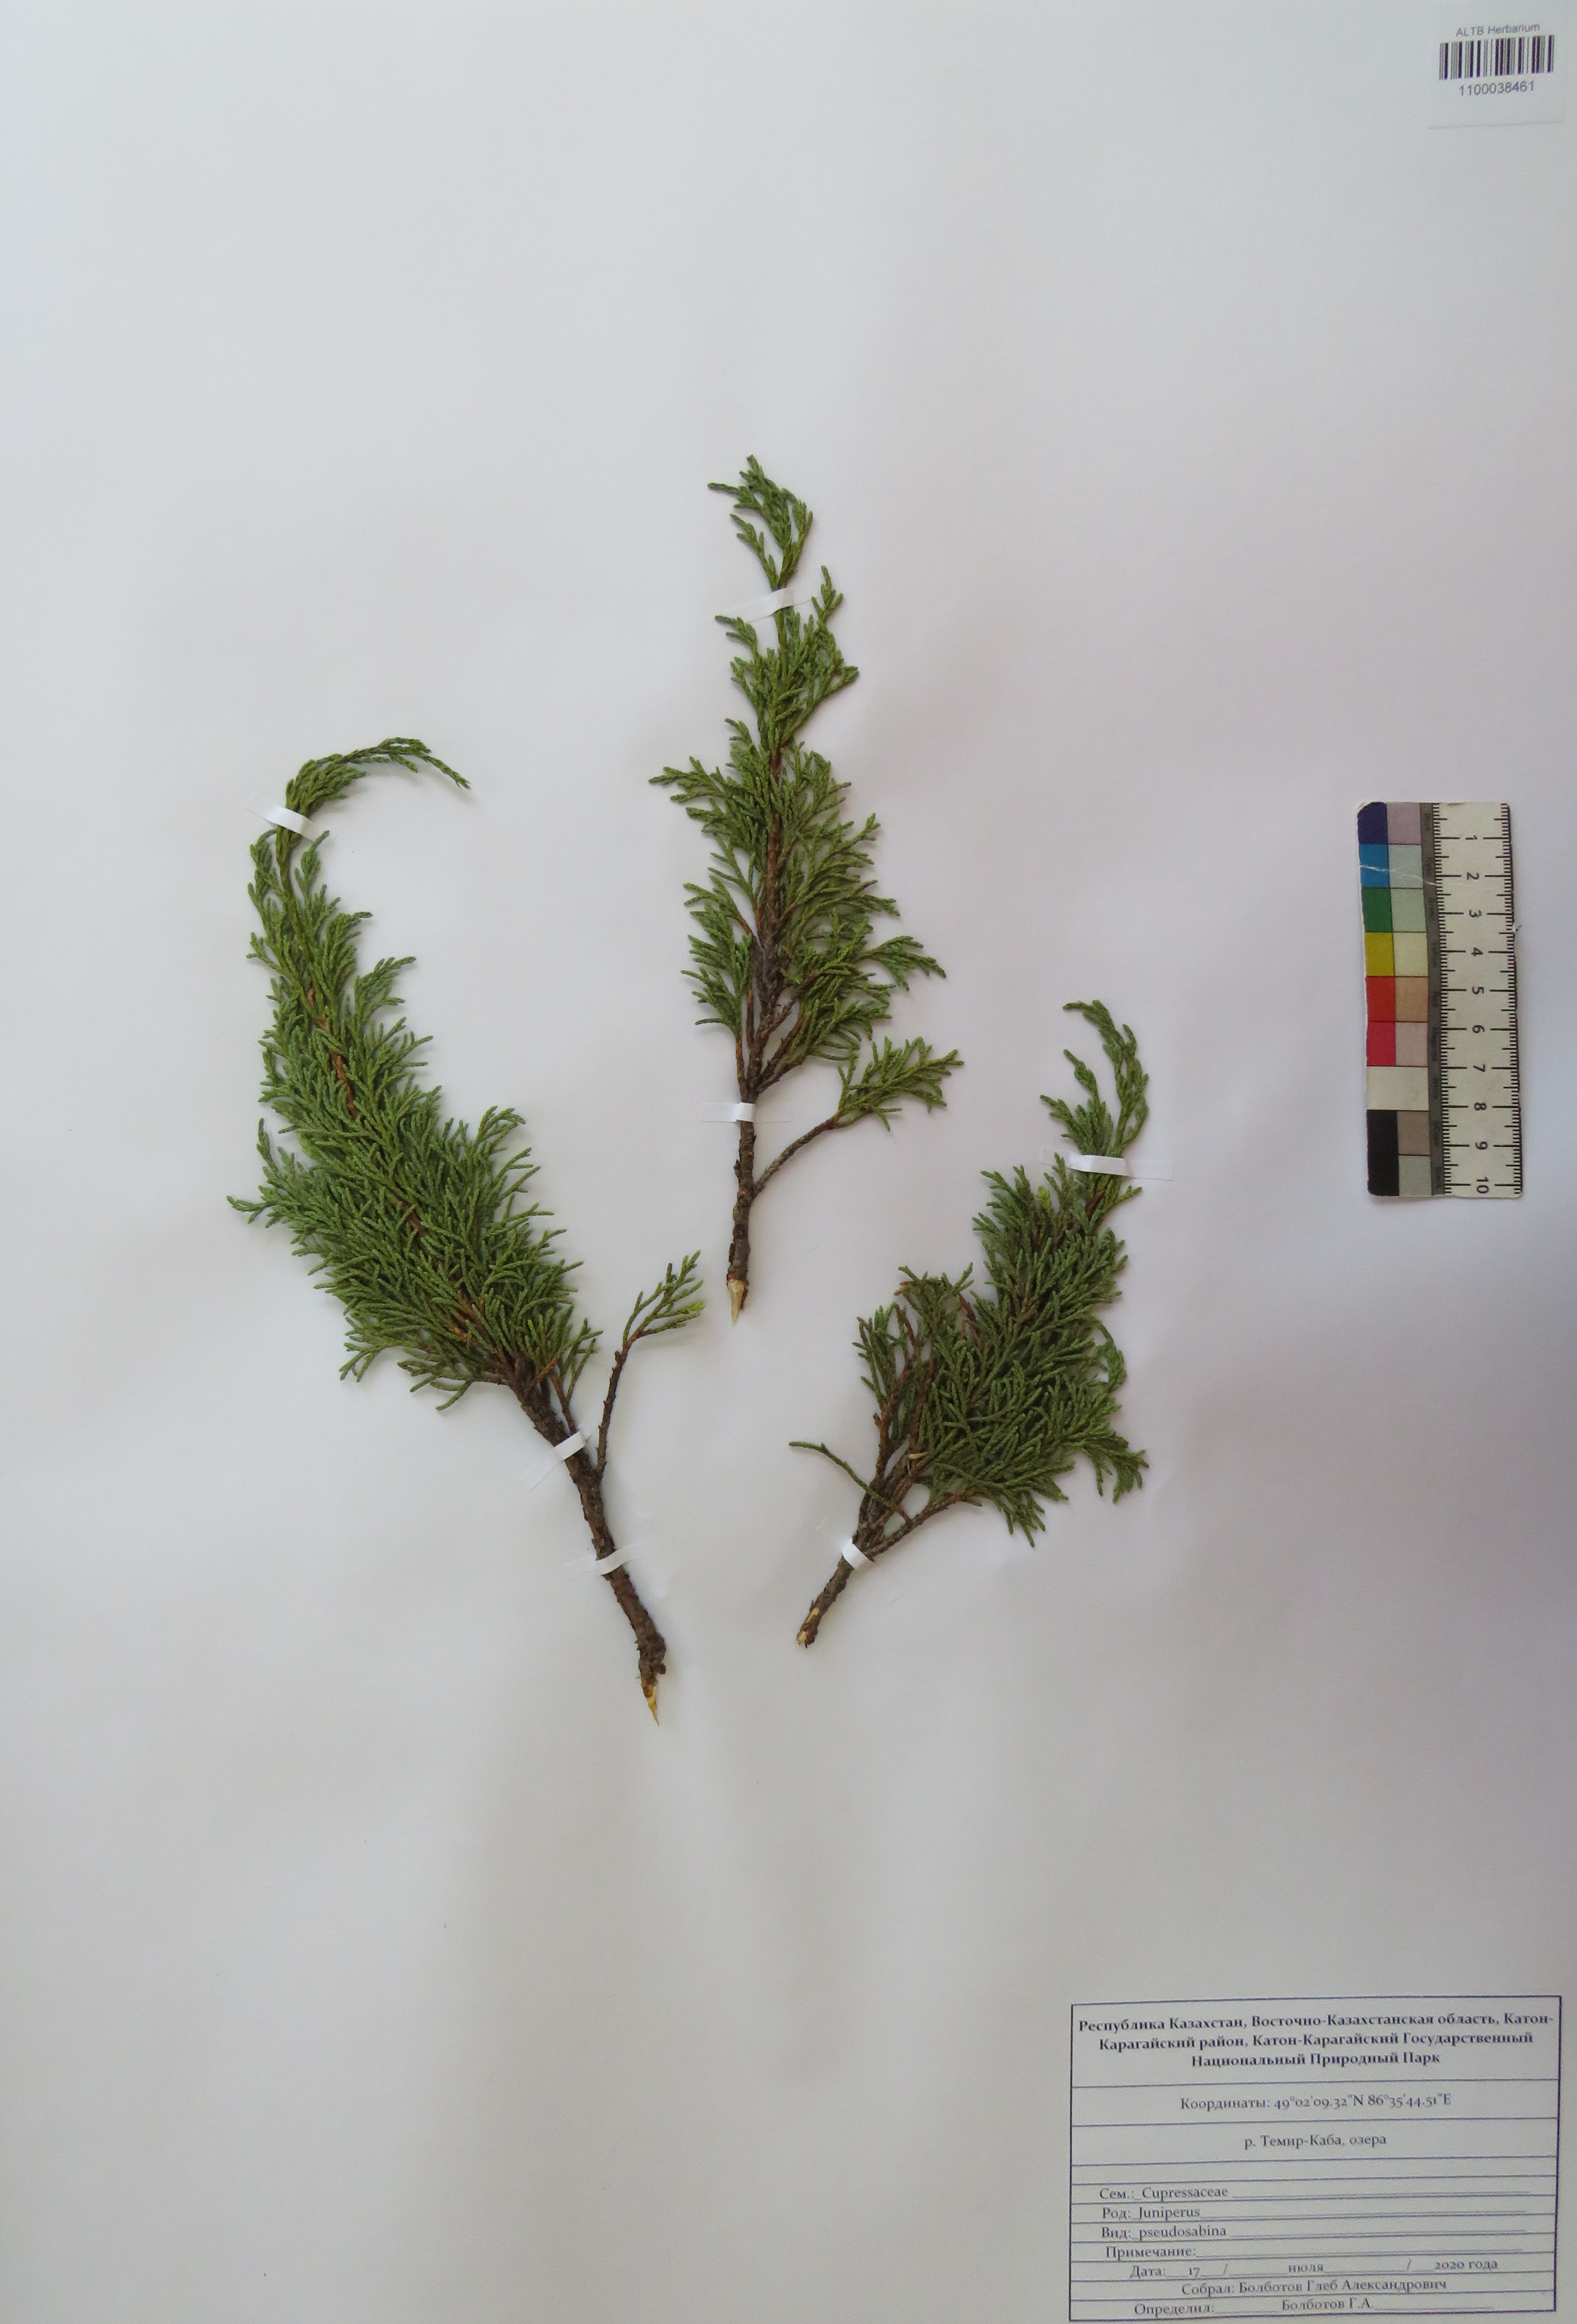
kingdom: Plantae
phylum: Tracheophyta
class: Pinopsida
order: Pinales
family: Cupressaceae
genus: Juniperus
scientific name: Juniperus pseudosabina
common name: Turkestan juniper
